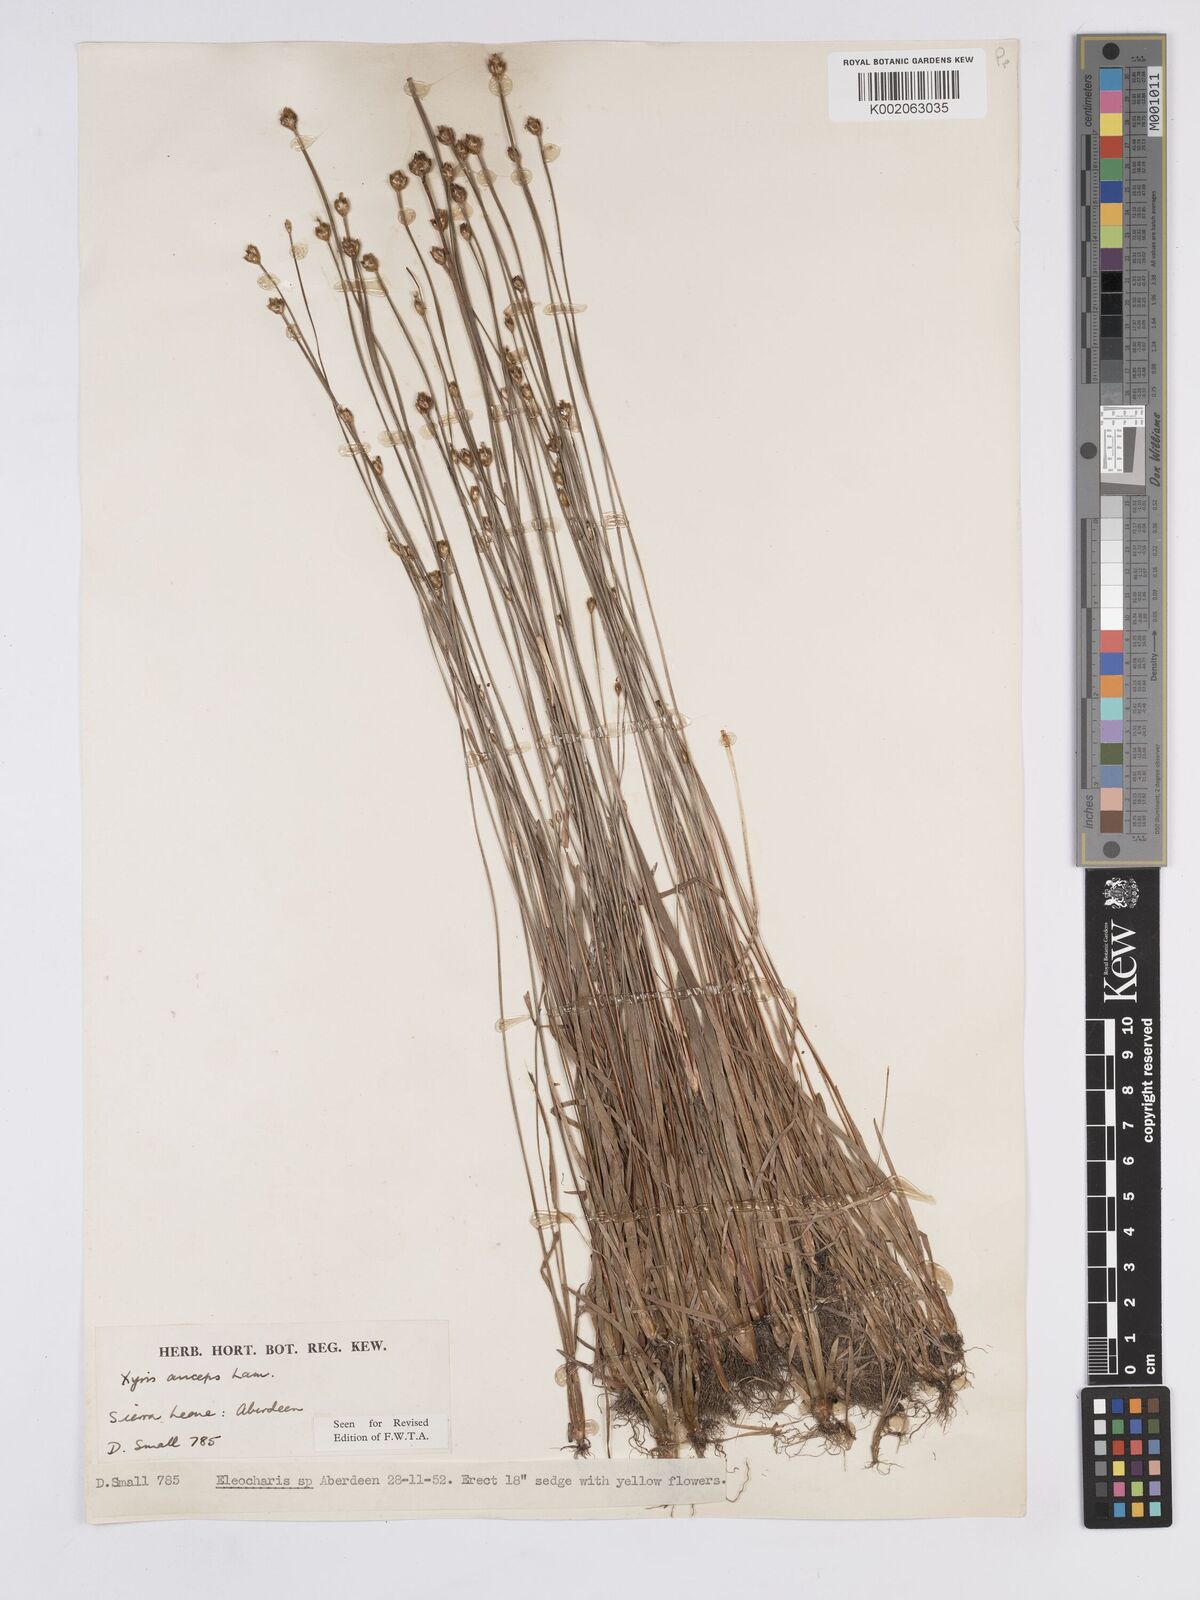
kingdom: Plantae
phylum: Tracheophyta
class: Liliopsida
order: Poales
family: Xyridaceae
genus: Xyris
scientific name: Xyris anceps
